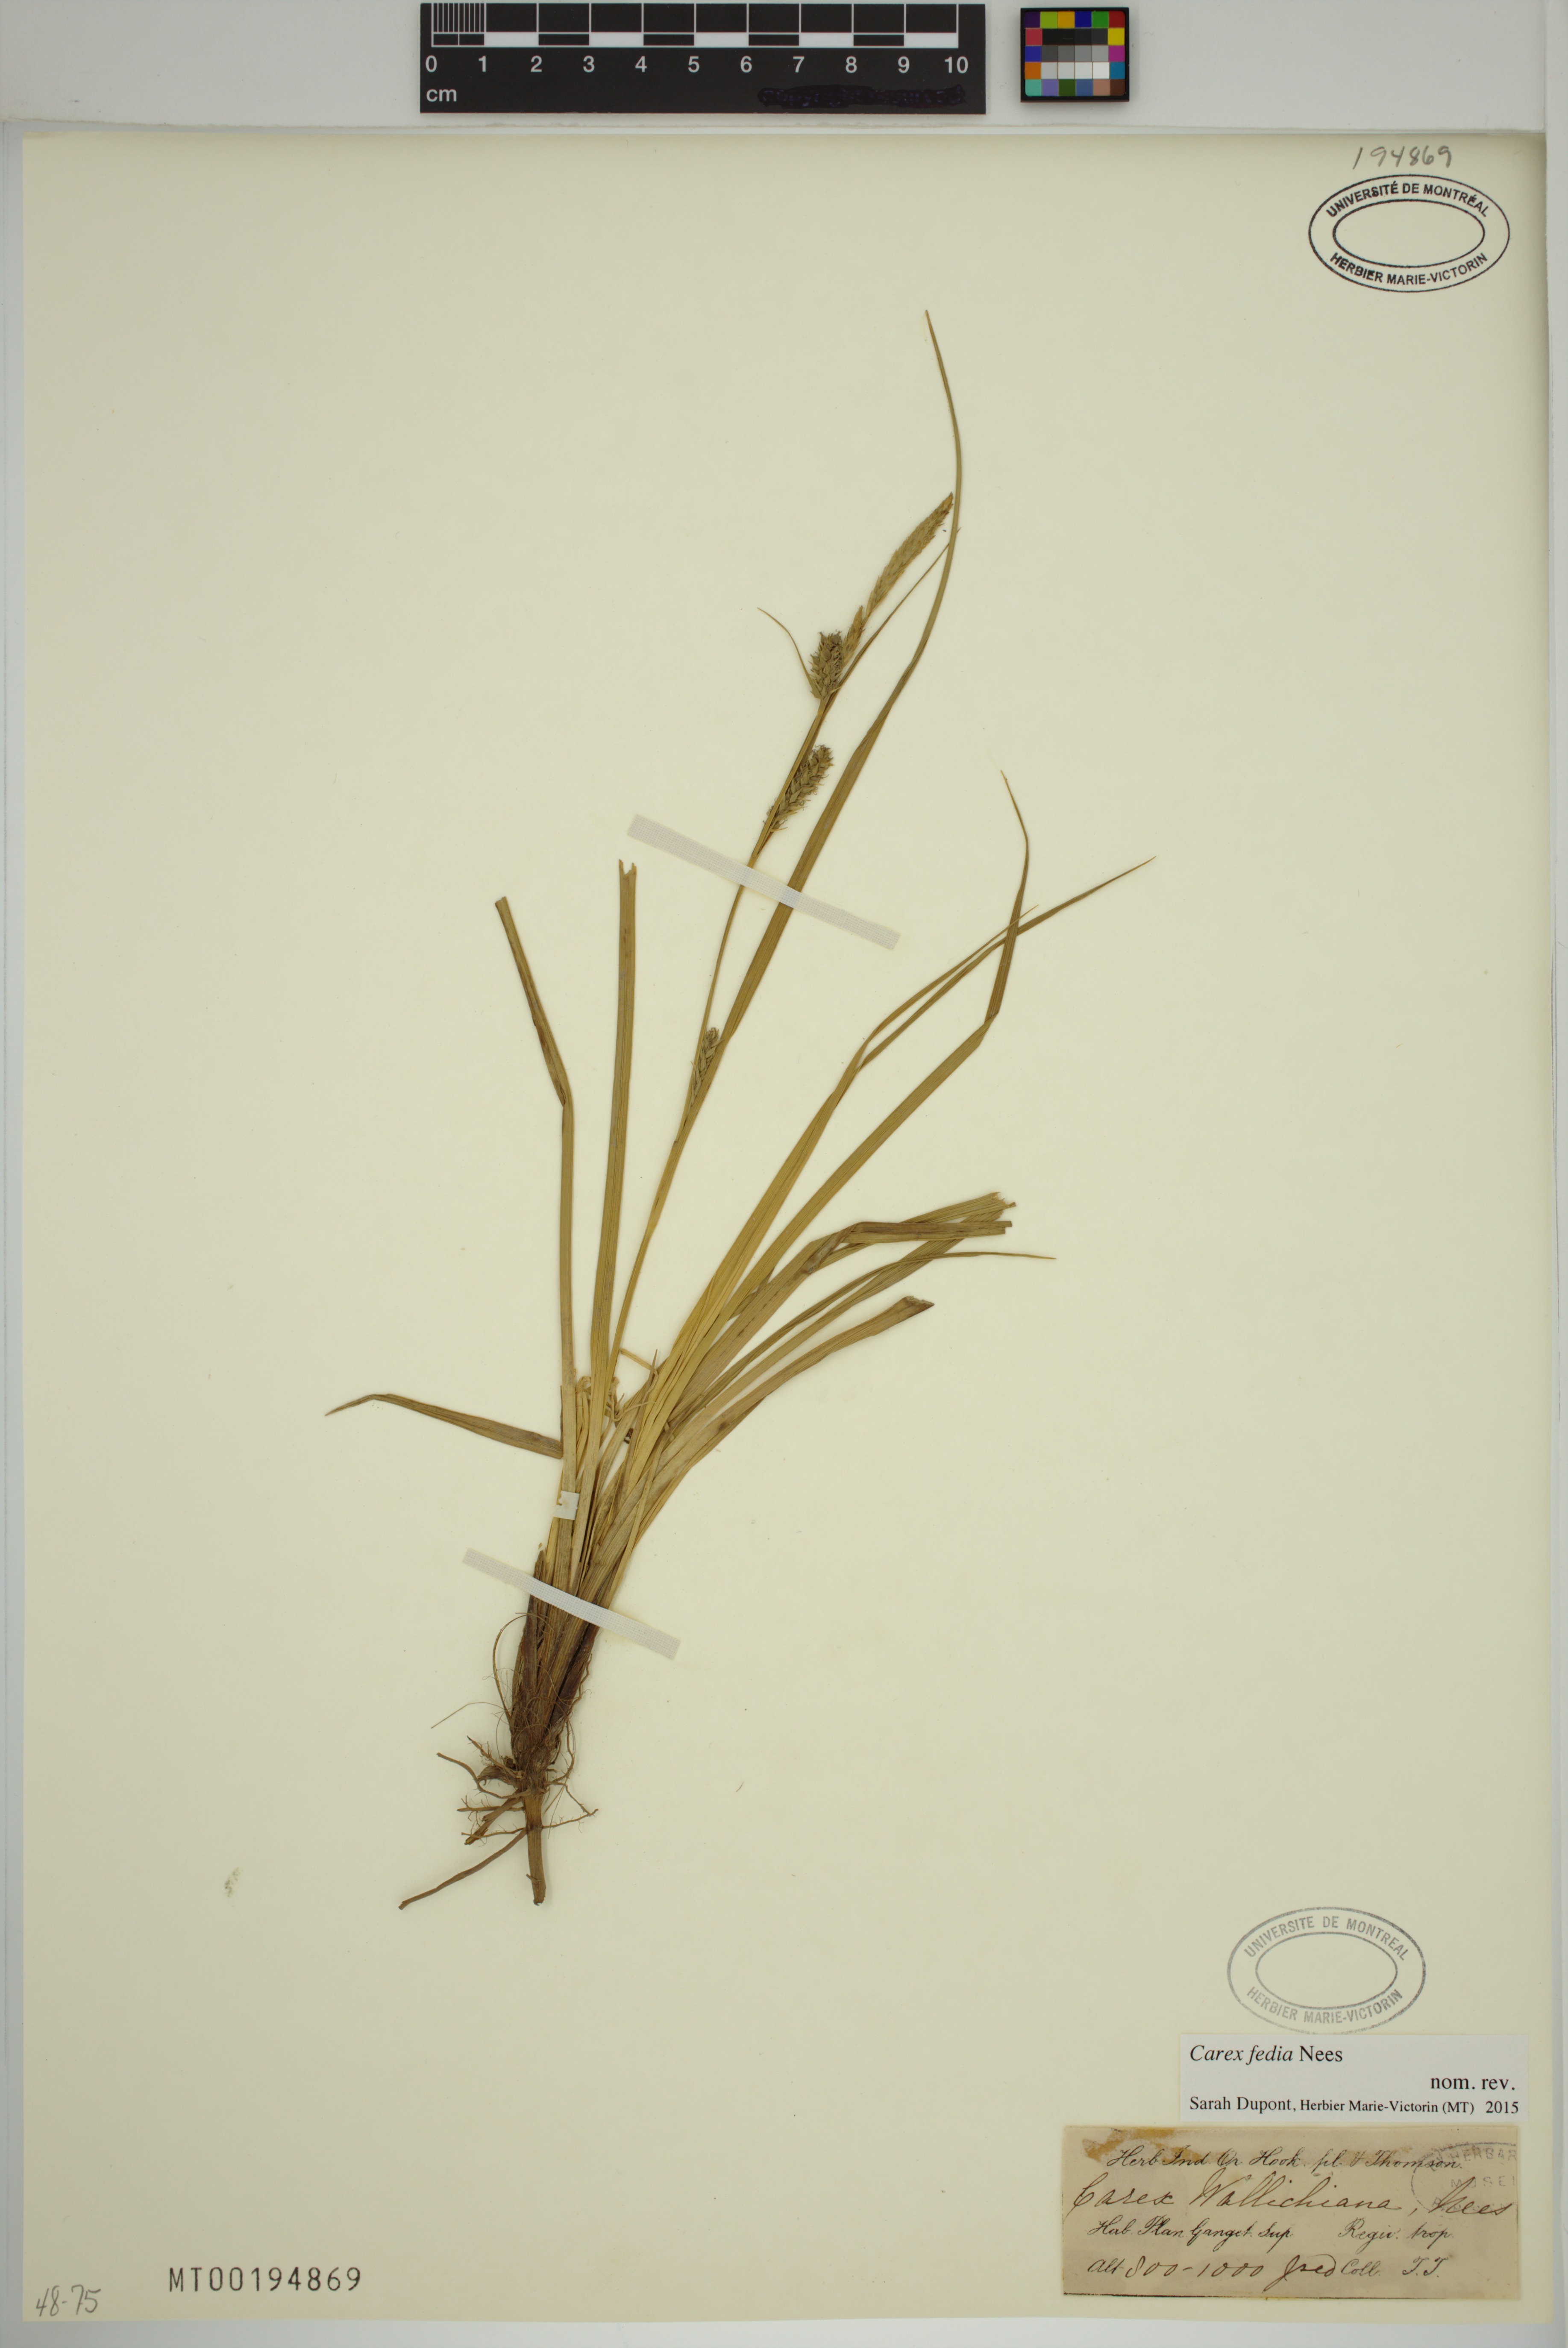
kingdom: Plantae
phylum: Tracheophyta
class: Liliopsida
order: Poales
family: Cyperaceae
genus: Carex
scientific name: Carex fedia
